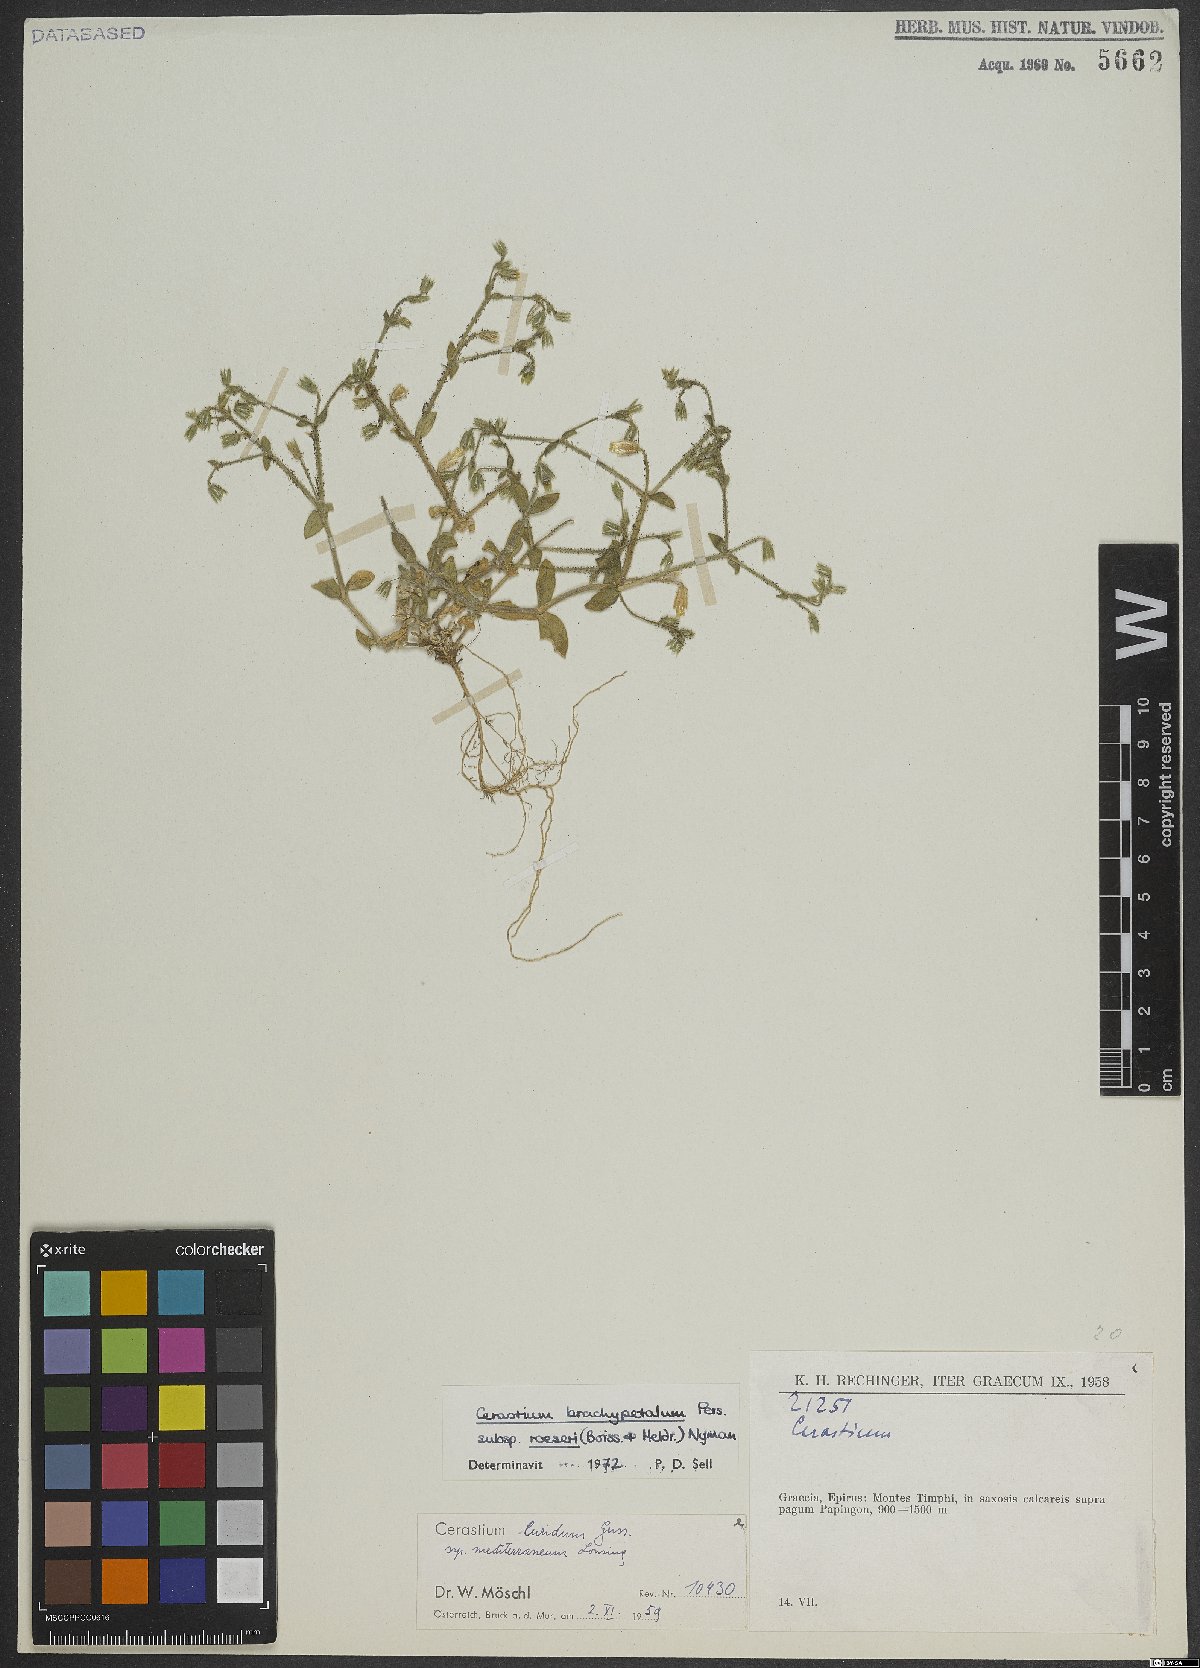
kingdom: Plantae
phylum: Tracheophyta
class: Magnoliopsida
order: Caryophyllales
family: Caryophyllaceae
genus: Cerastium
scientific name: Cerastium brachypetalum
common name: Grey mouse-ear
